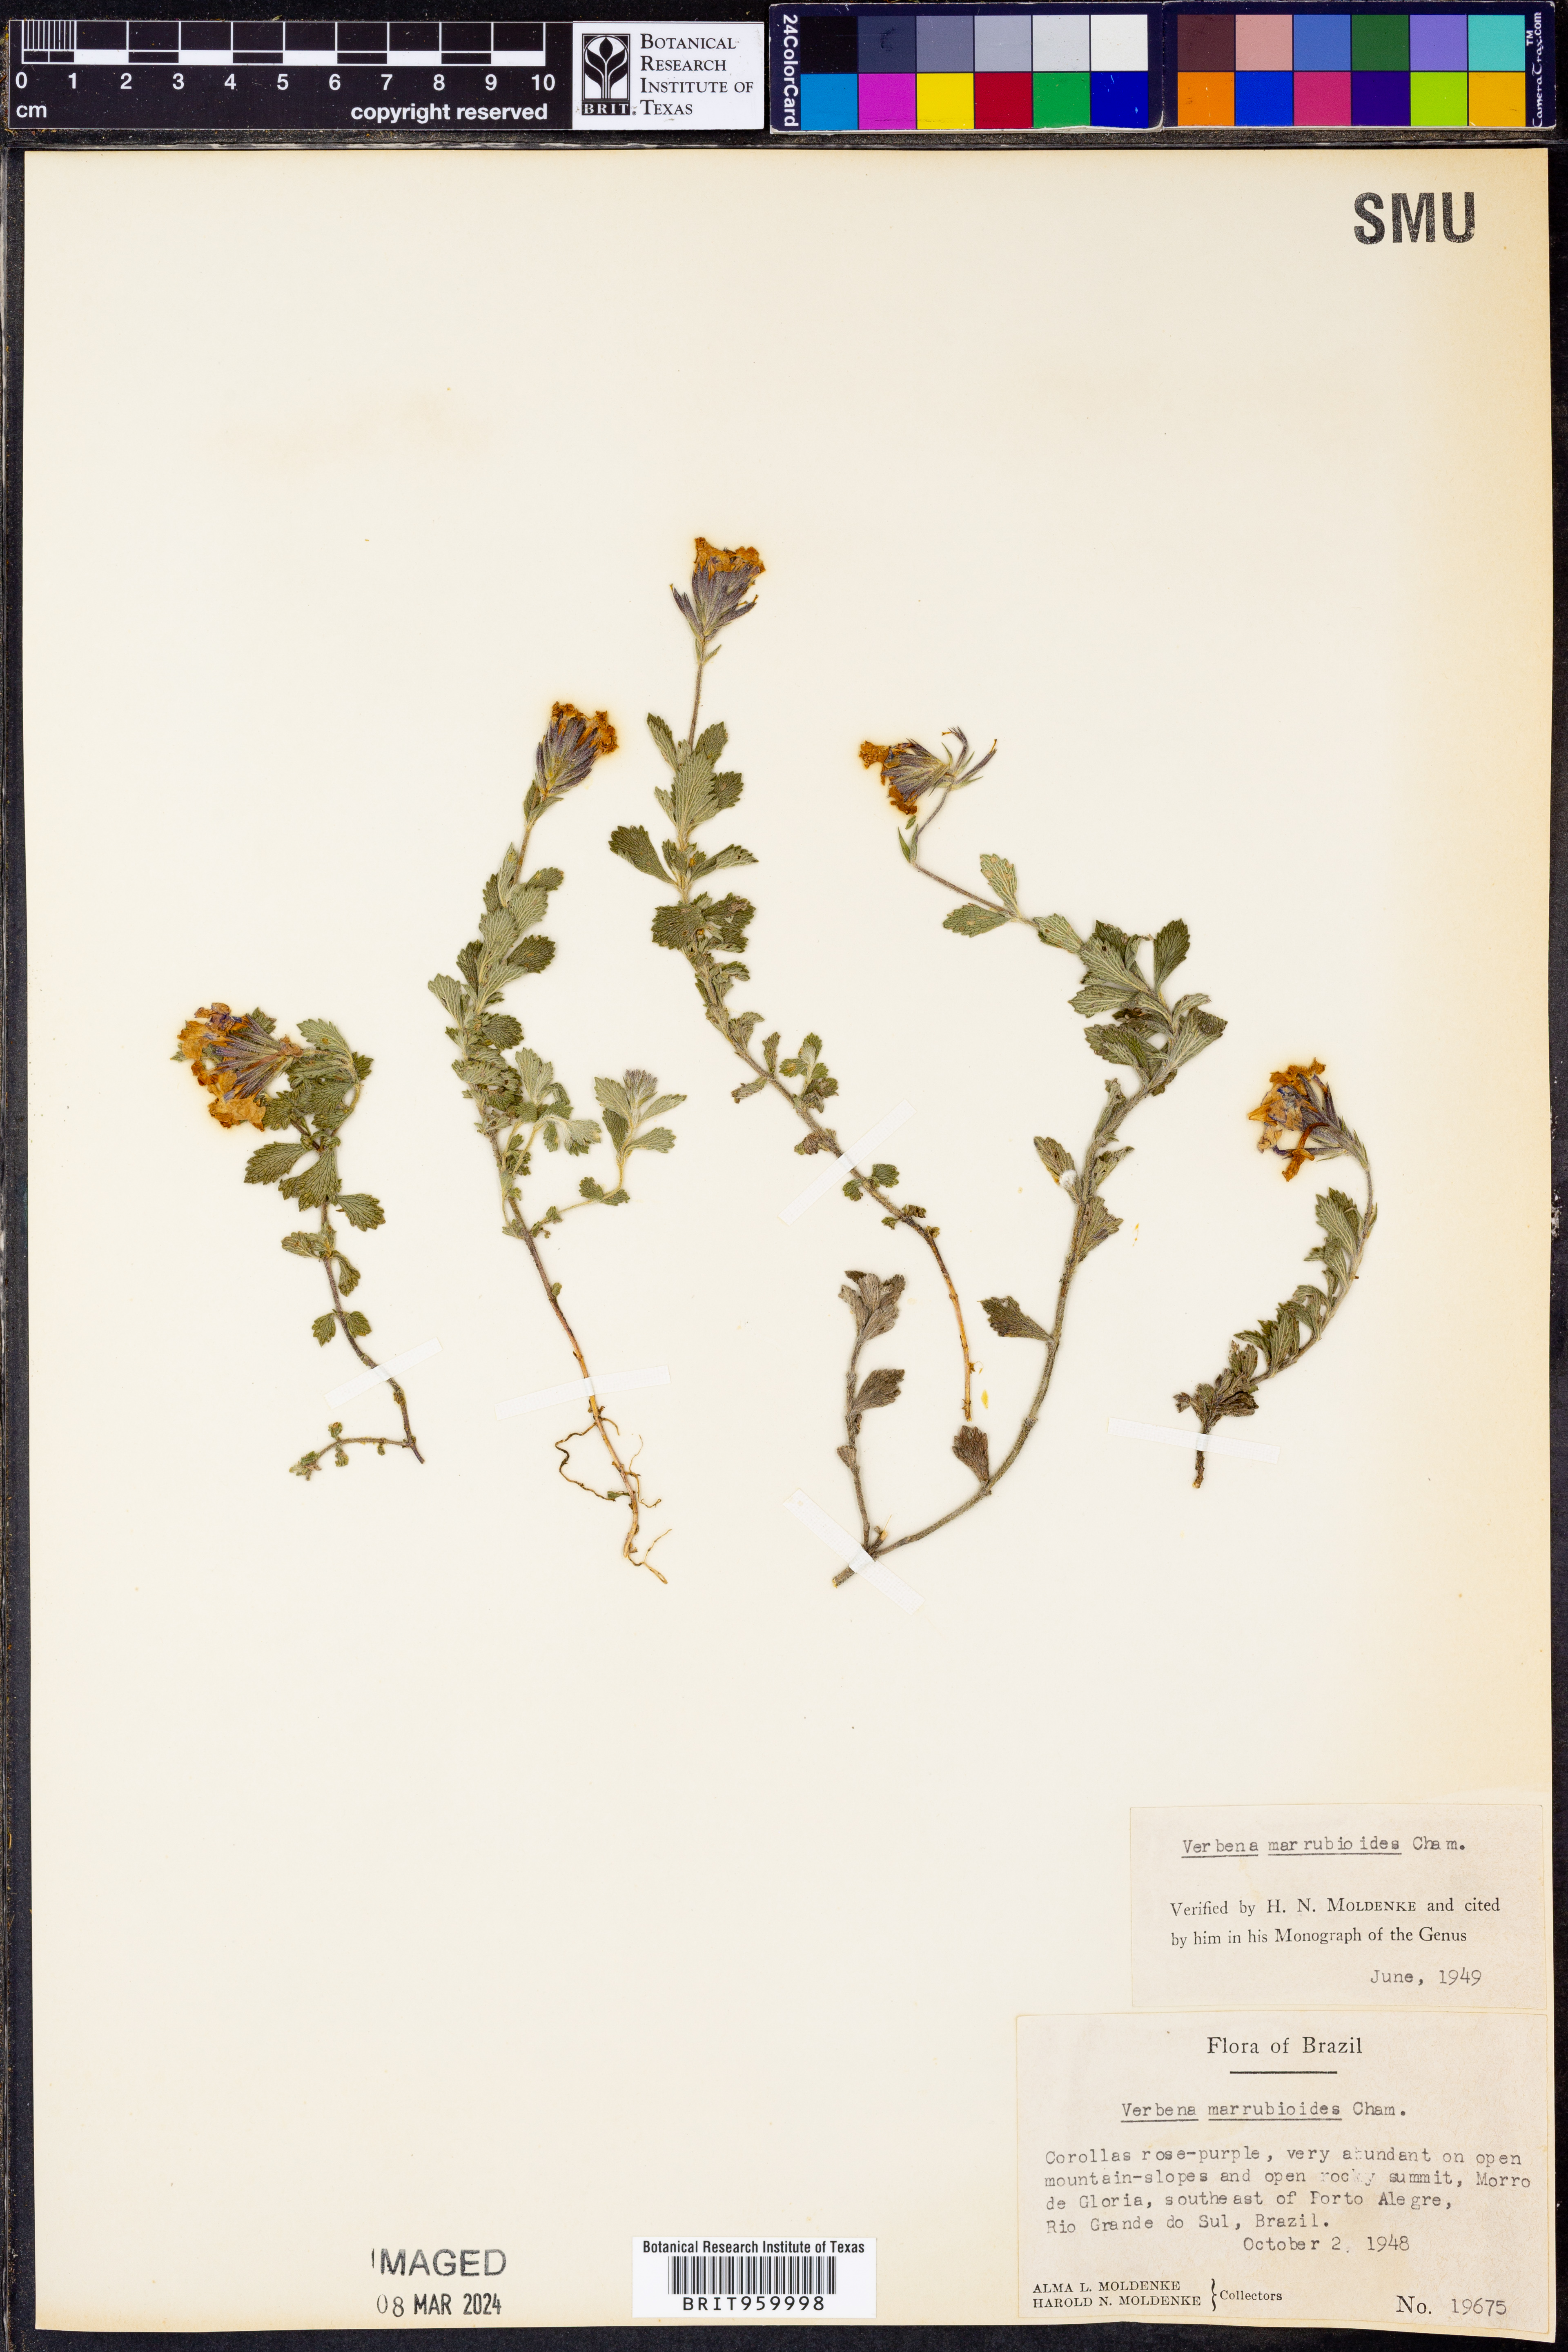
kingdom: Plantae
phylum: Tracheophyta
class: Magnoliopsida
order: Lamiales
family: Verbenaceae
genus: Verbena
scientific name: Verbena
